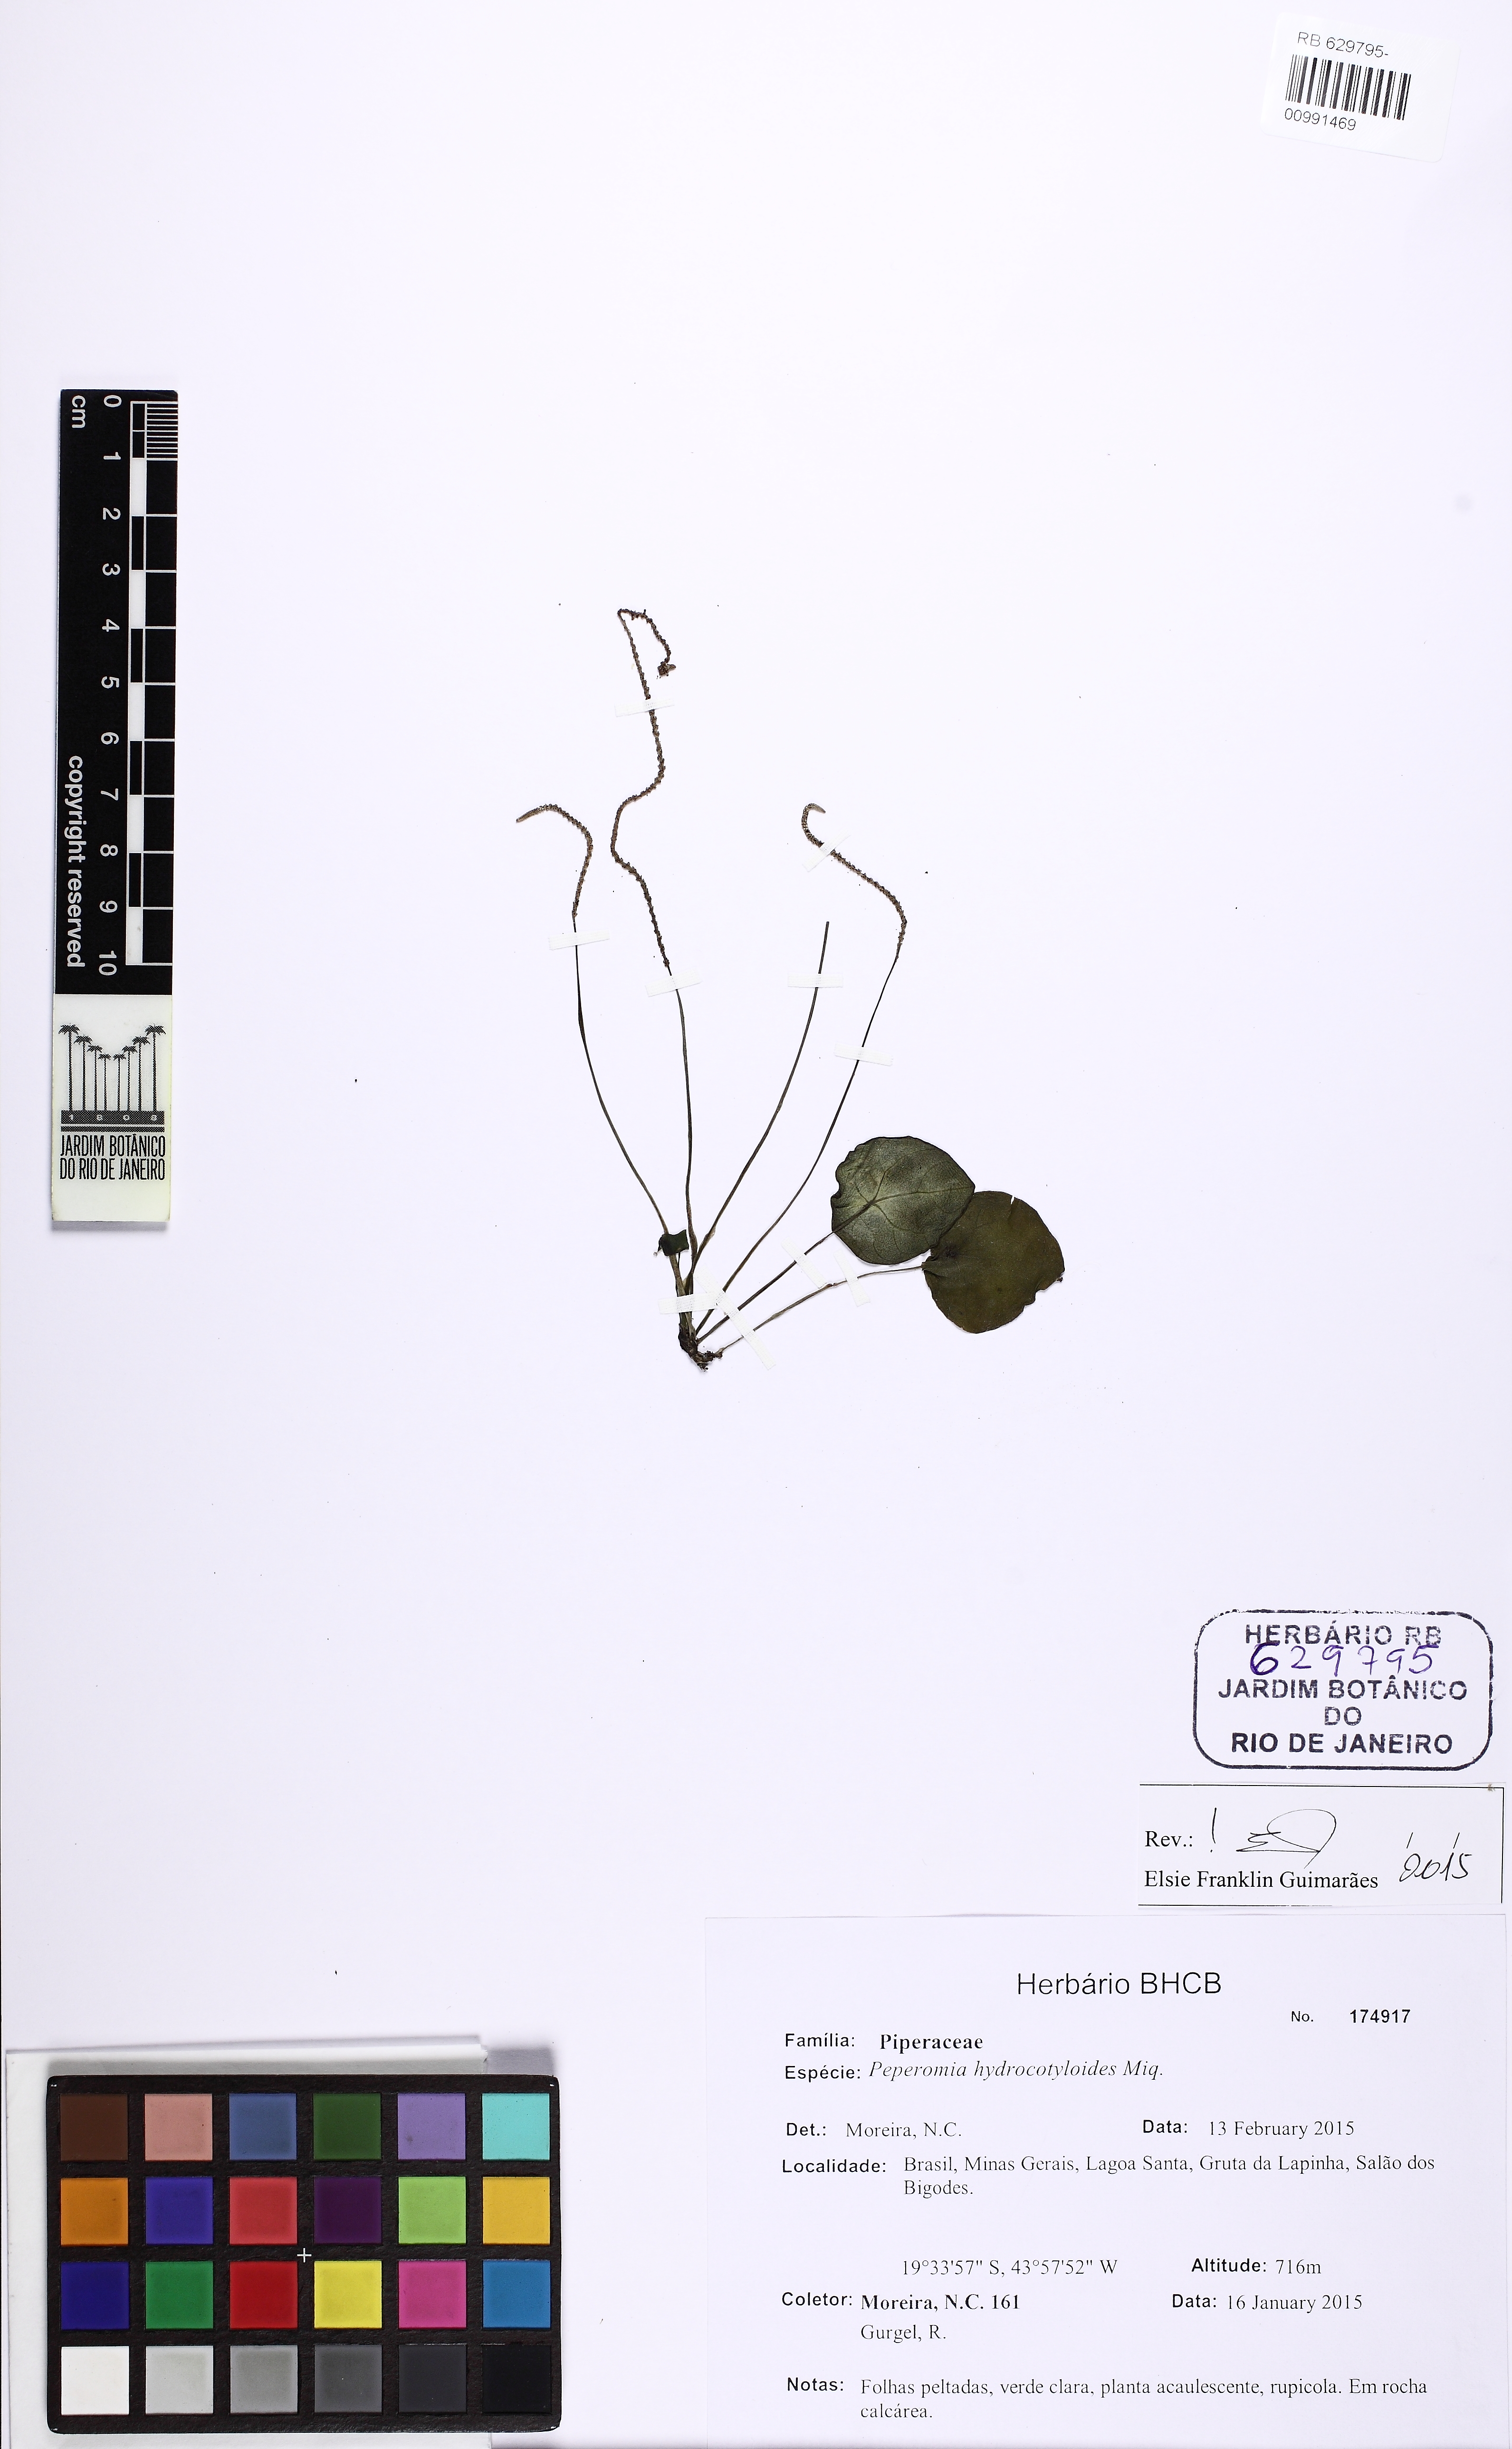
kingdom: Plantae
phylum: Tracheophyta
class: Magnoliopsida
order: Piperales
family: Piperaceae
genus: Peperomia
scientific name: Peperomia hydrocotyloides
